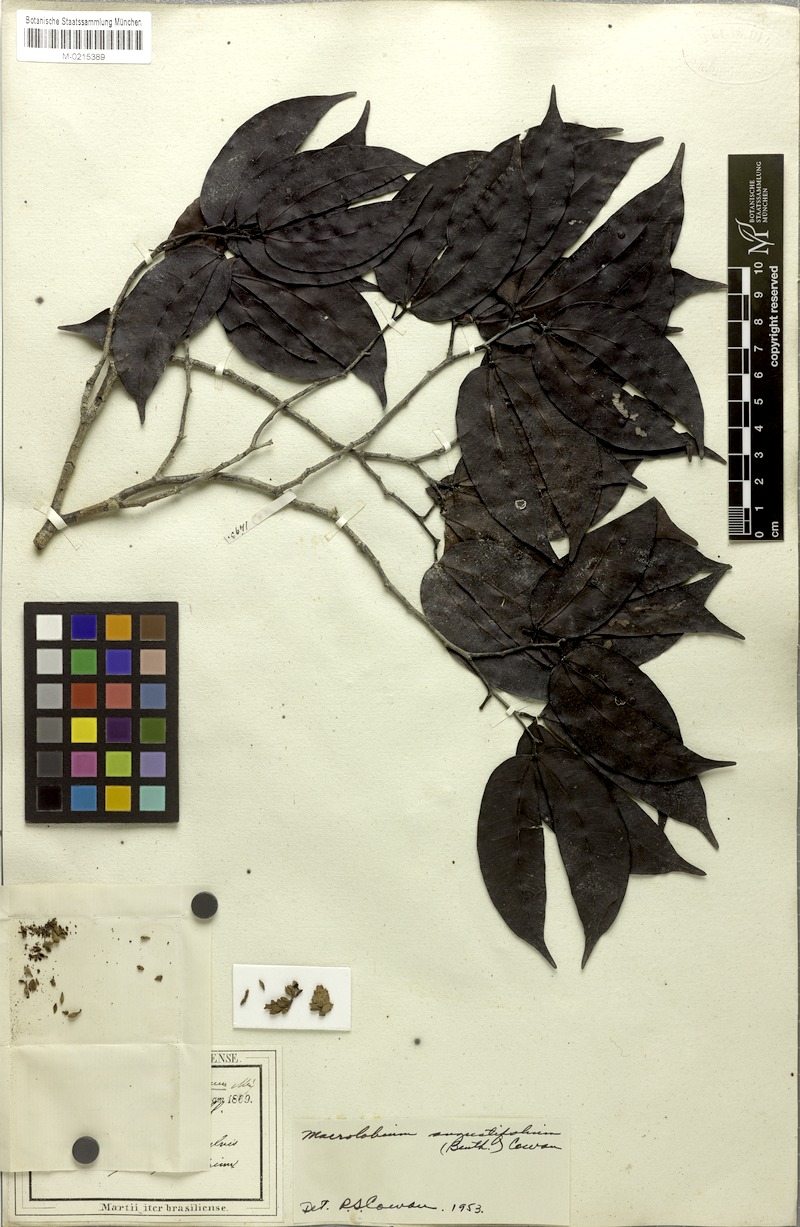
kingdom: Plantae
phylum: Tracheophyta
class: Magnoliopsida
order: Fabales
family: Fabaceae
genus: Macrolobium
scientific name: Macrolobium angustifolium
